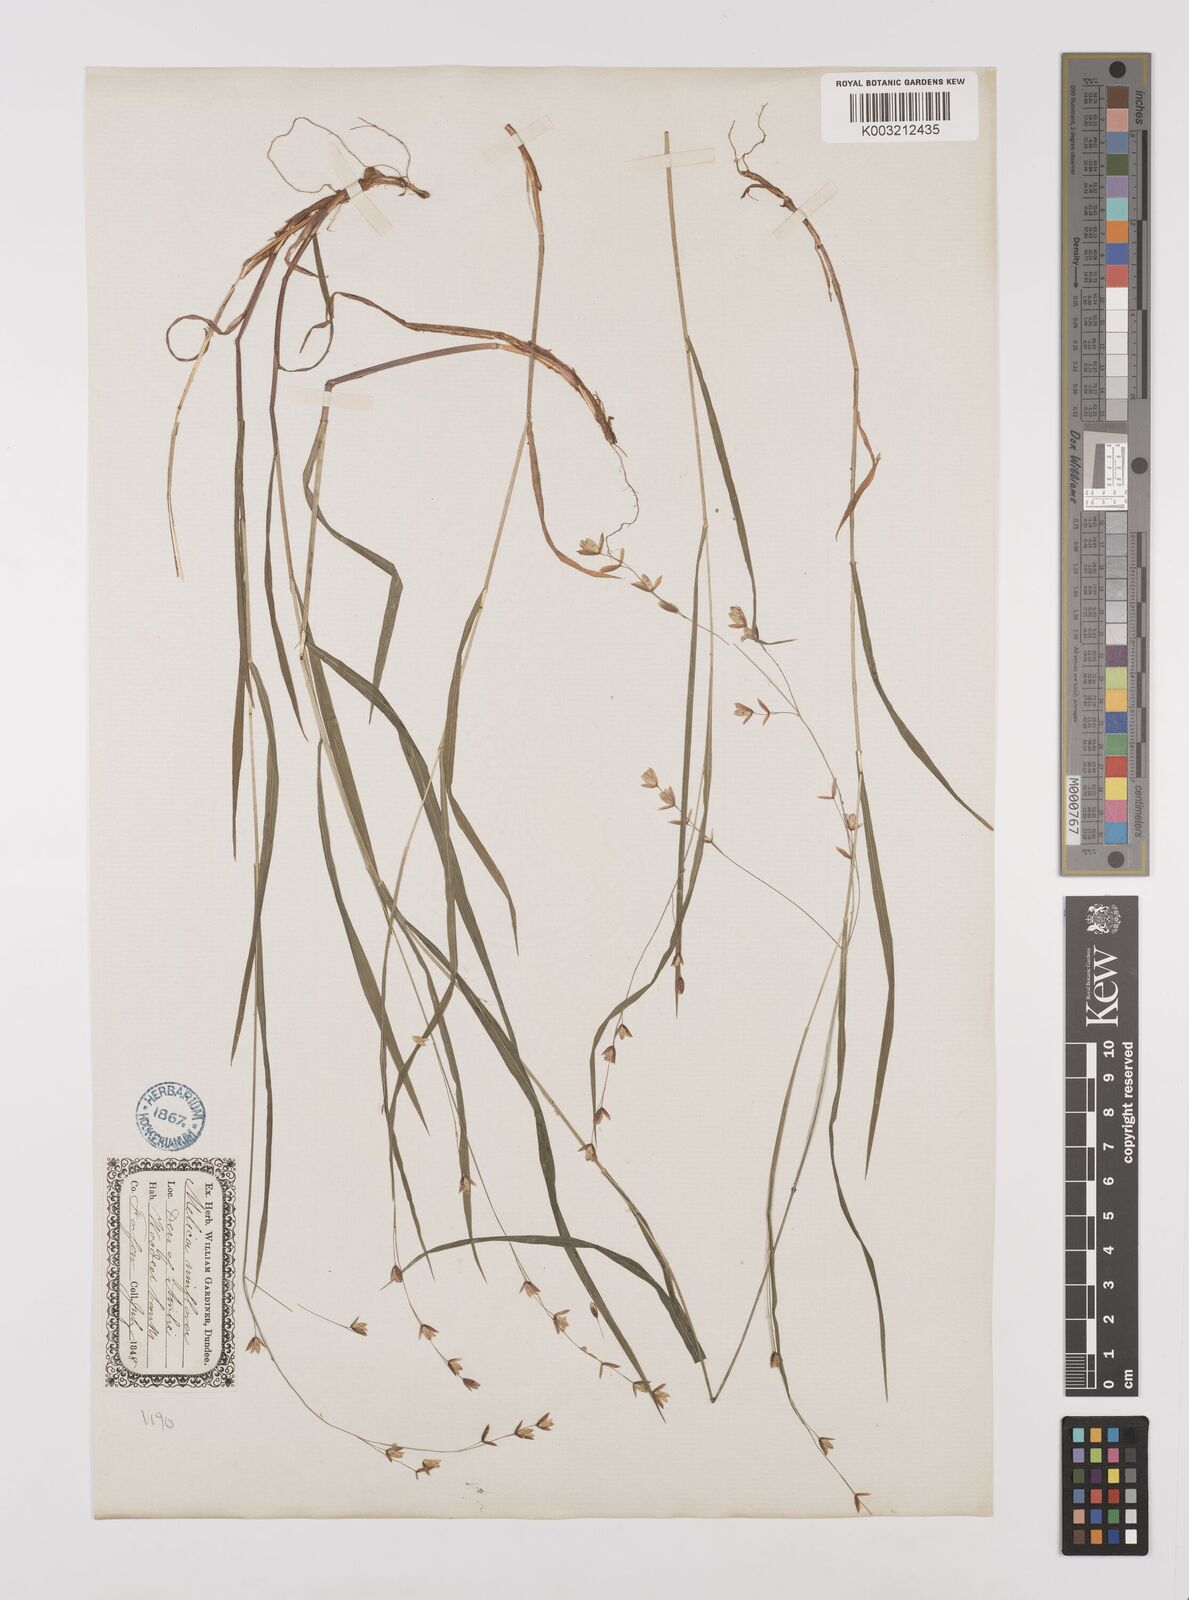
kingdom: Plantae
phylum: Tracheophyta
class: Liliopsida
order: Poales
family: Poaceae
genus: Melica
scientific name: Melica uniflora
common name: Wood melick
